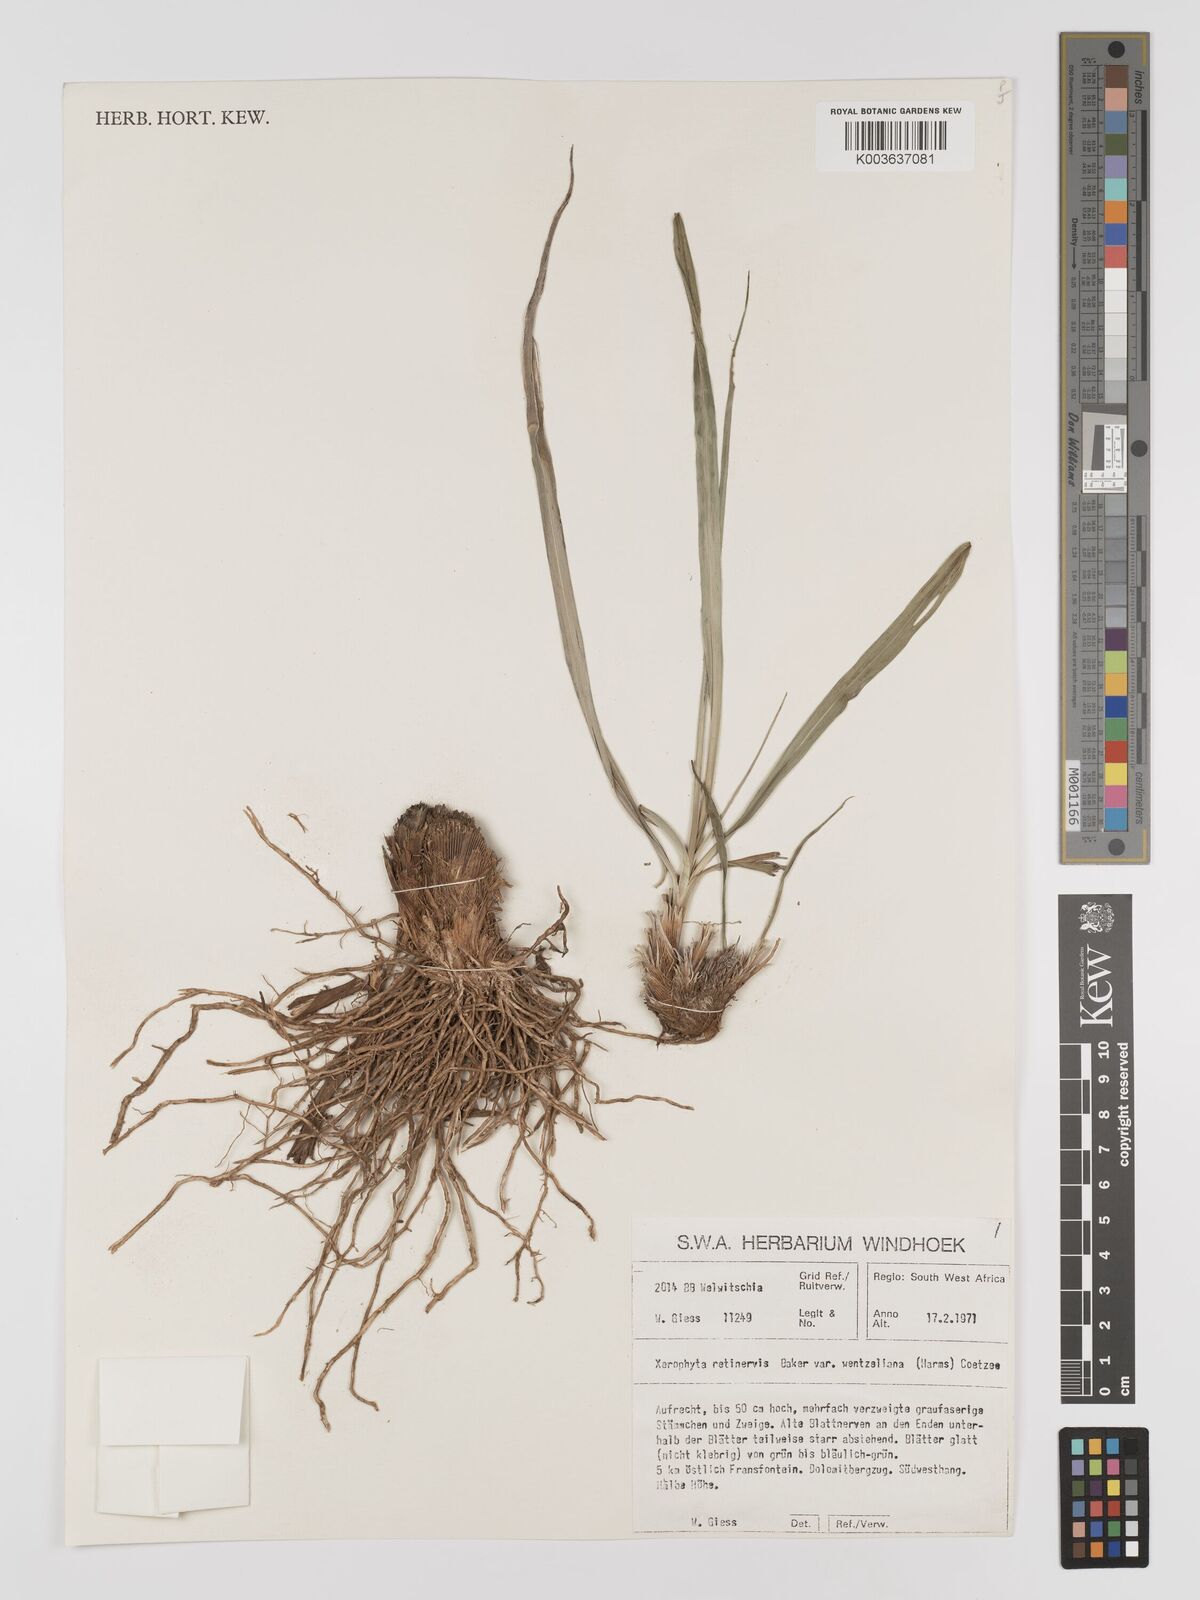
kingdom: Plantae
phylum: Tracheophyta
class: Liliopsida
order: Pandanales
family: Velloziaceae
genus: Xerophyta
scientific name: Xerophyta wentzeliana
